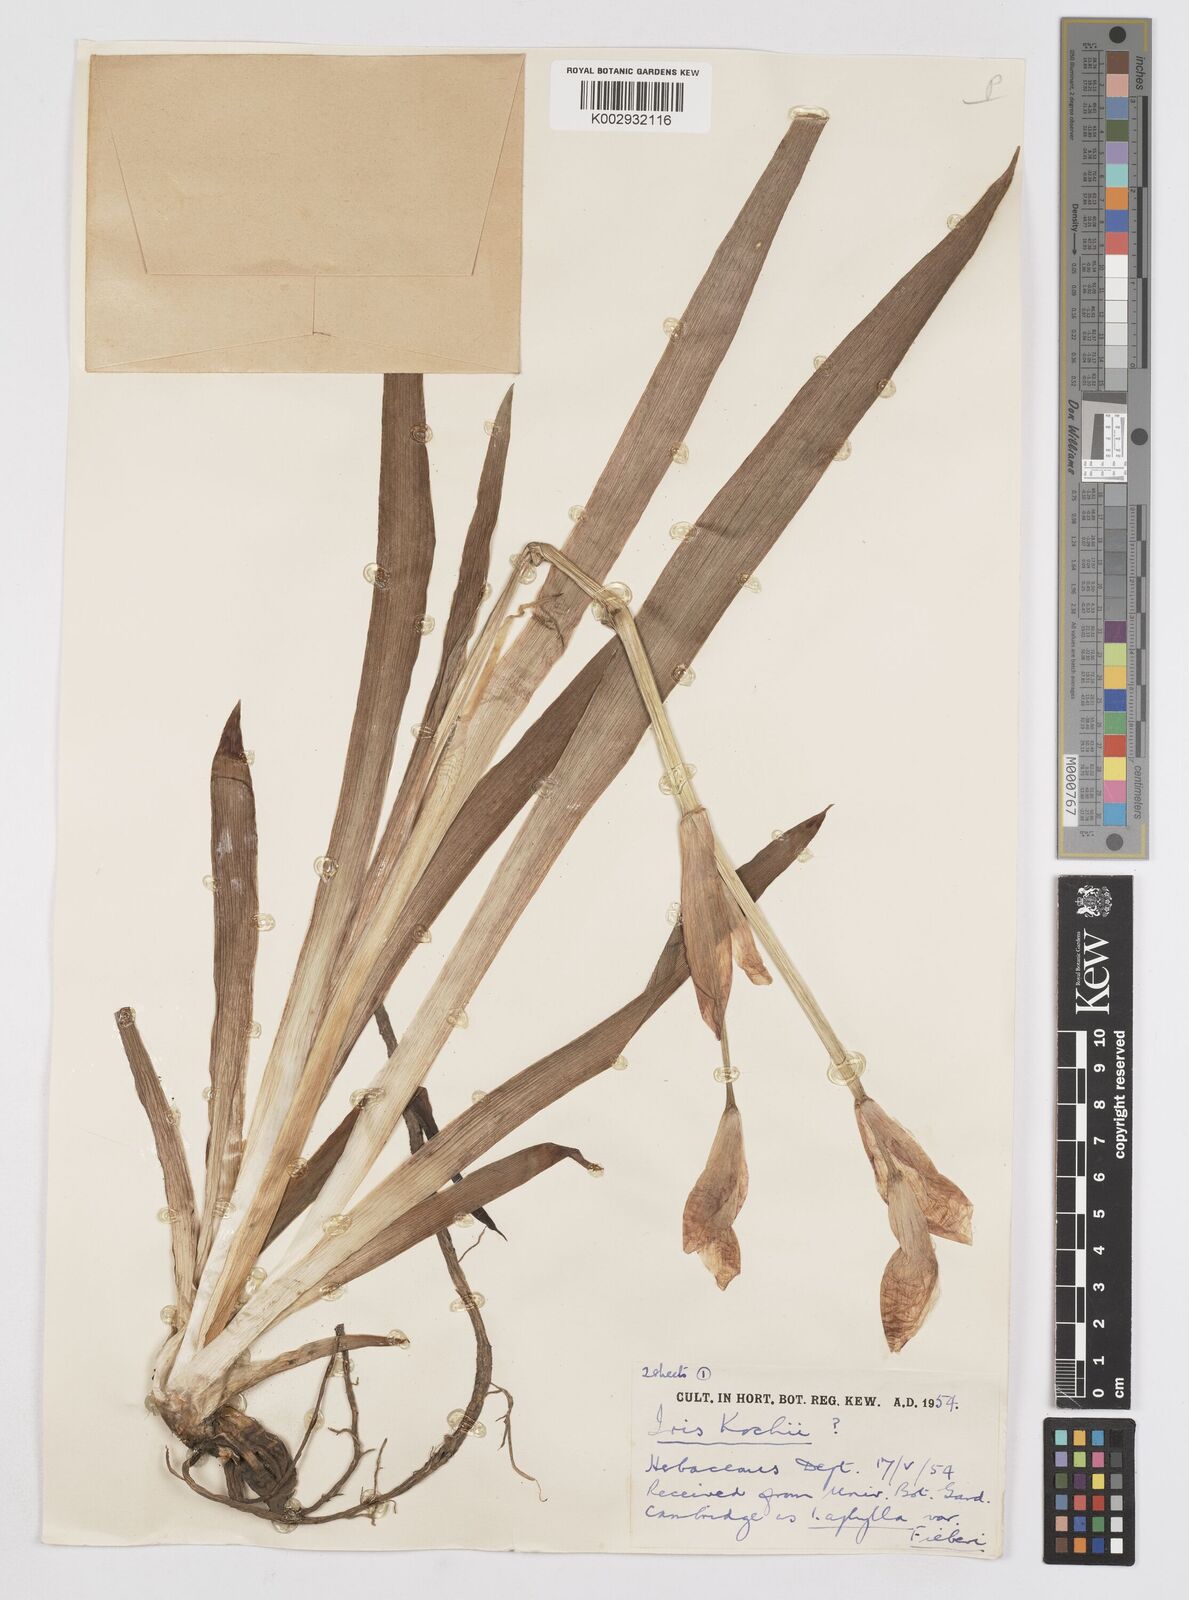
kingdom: Plantae
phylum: Tracheophyta
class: Liliopsida
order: Asparagales
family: Iridaceae
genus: Iris
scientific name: Iris kochii
